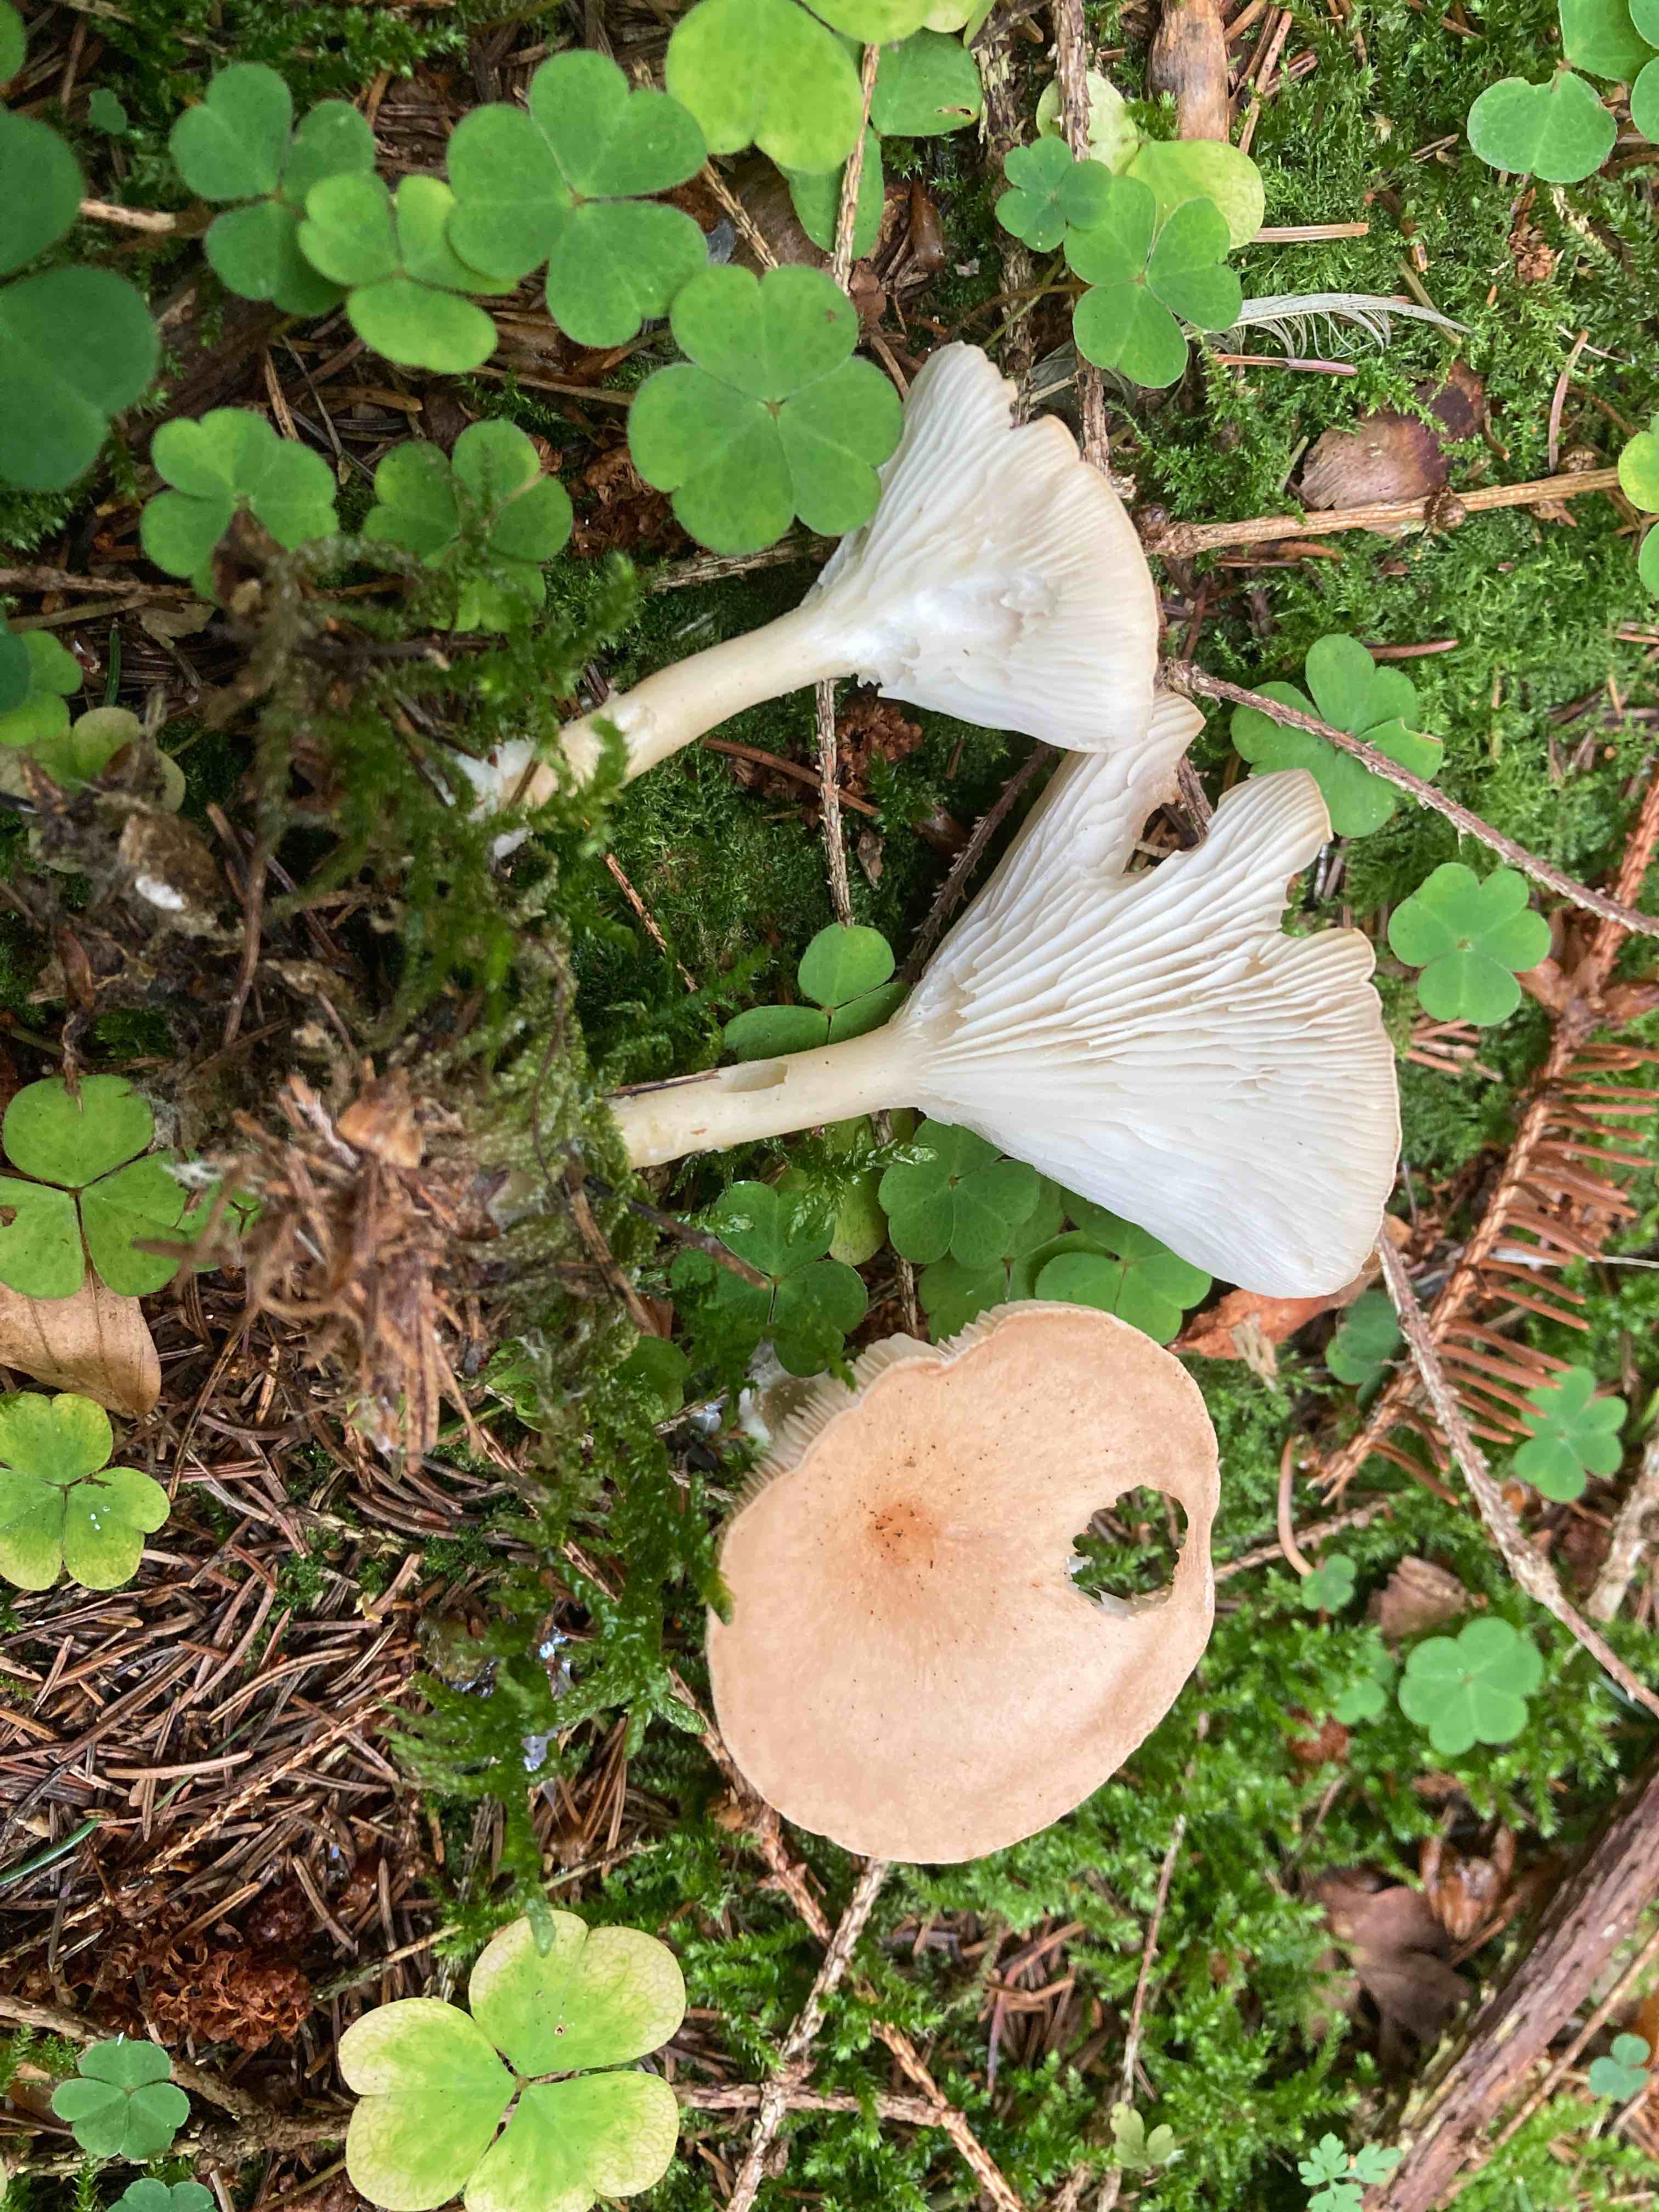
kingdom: Fungi
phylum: Basidiomycota
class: Agaricomycetes
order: Agaricales
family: Tricholomataceae
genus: Infundibulicybe
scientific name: Infundibulicybe gibba
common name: almindelig tragthat
